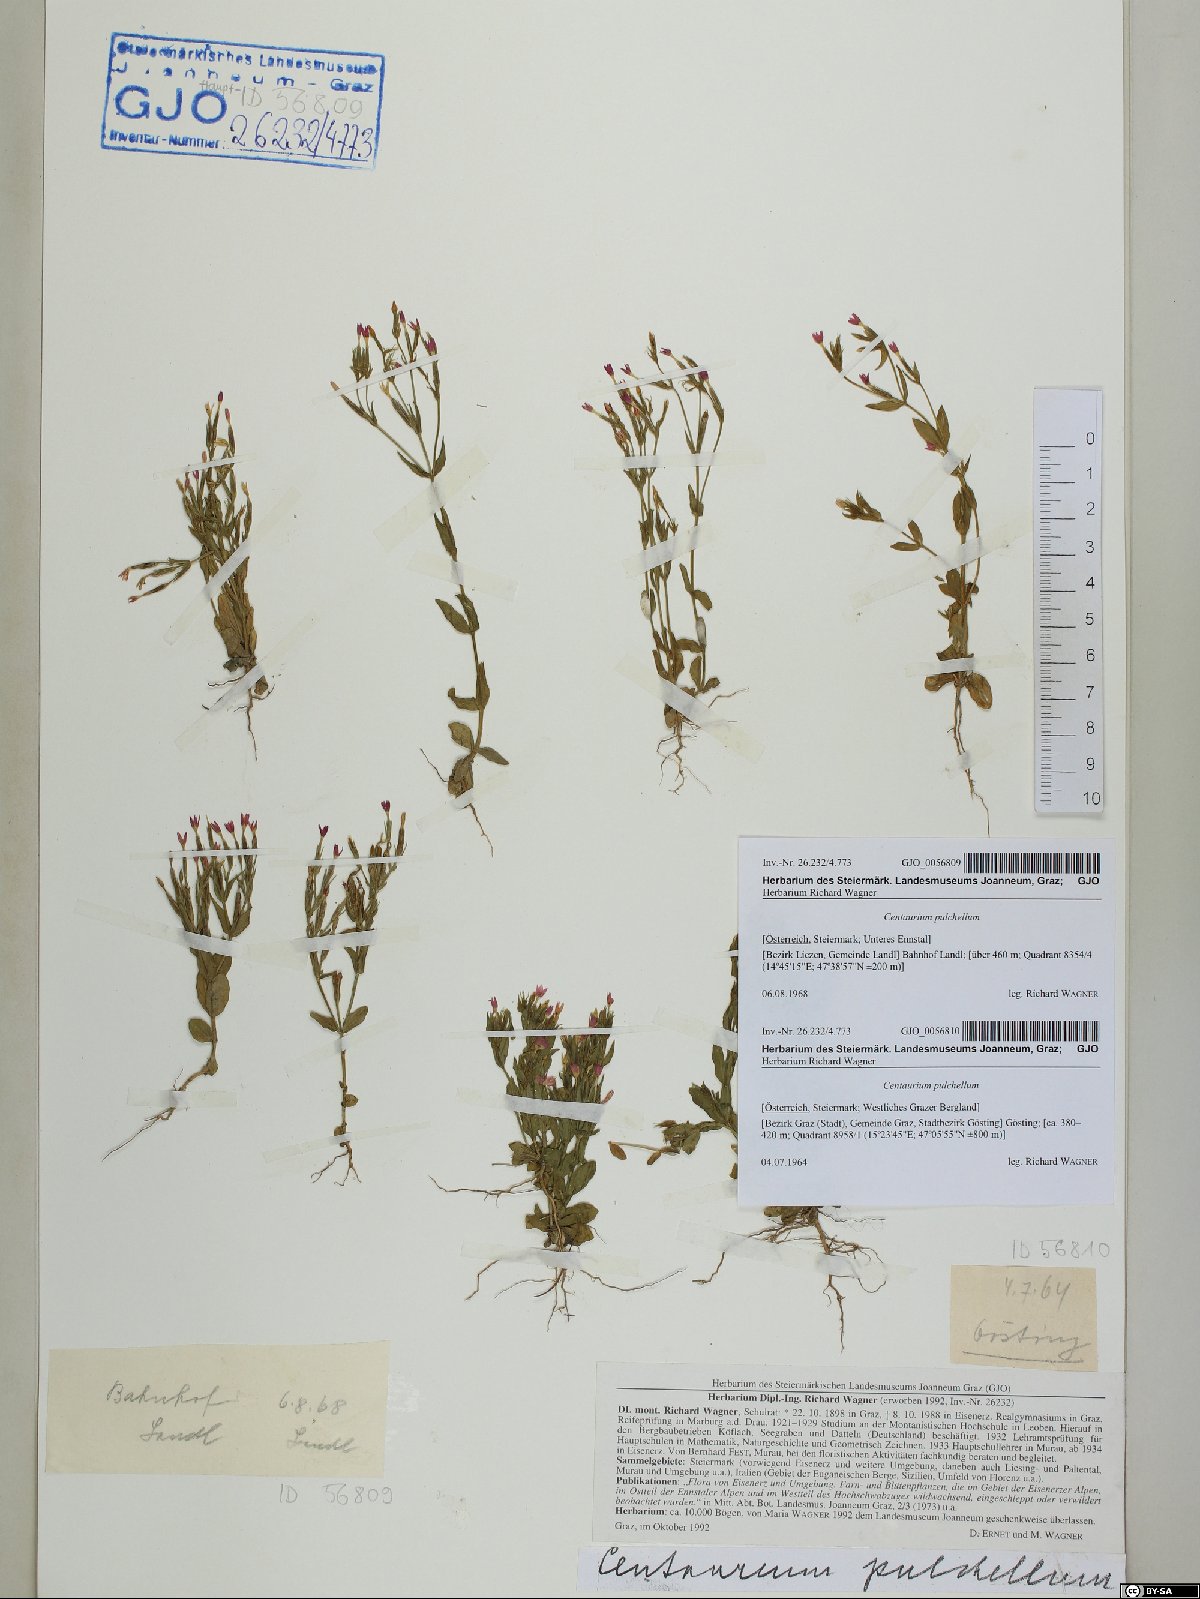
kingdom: Plantae
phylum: Tracheophyta
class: Magnoliopsida
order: Gentianales
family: Gentianaceae
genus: Centaurium
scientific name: Centaurium pulchellum
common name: Lesser centaury
